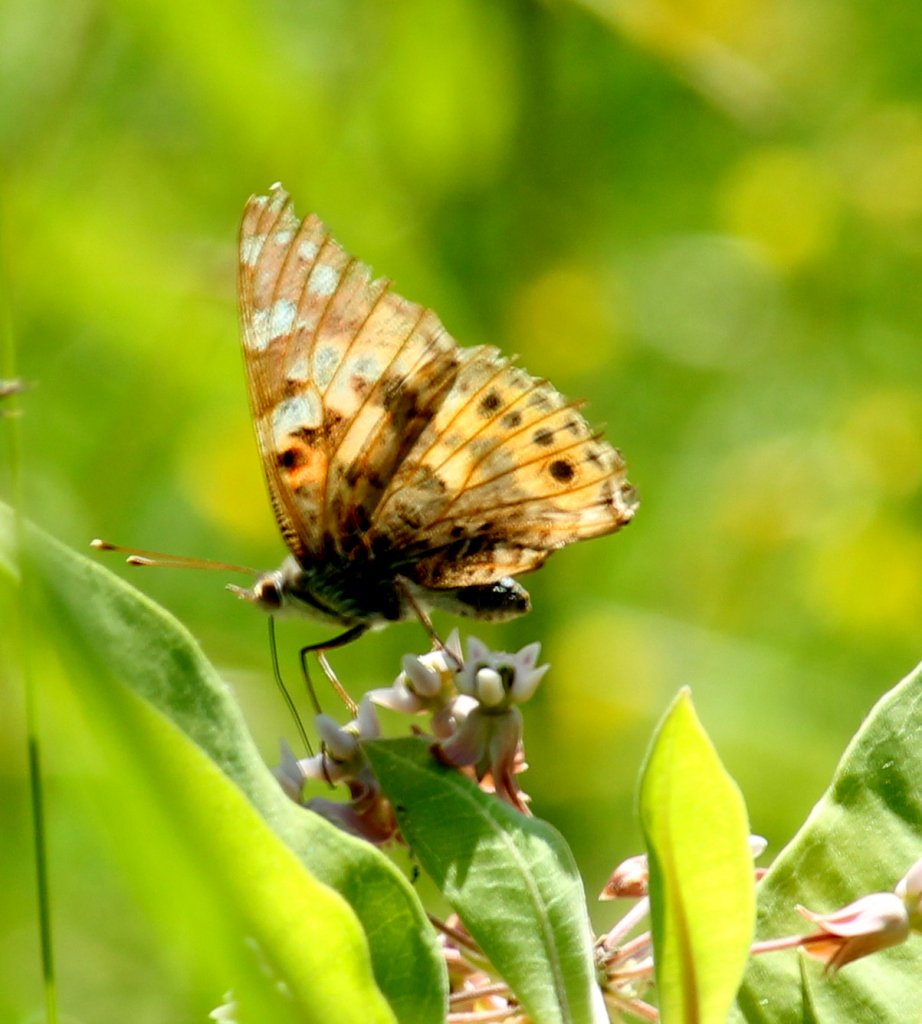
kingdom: Animalia
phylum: Arthropoda
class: Insecta
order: Lepidoptera
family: Nymphalidae
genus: Vanessa
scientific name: Vanessa cardui
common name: Painted Lady
